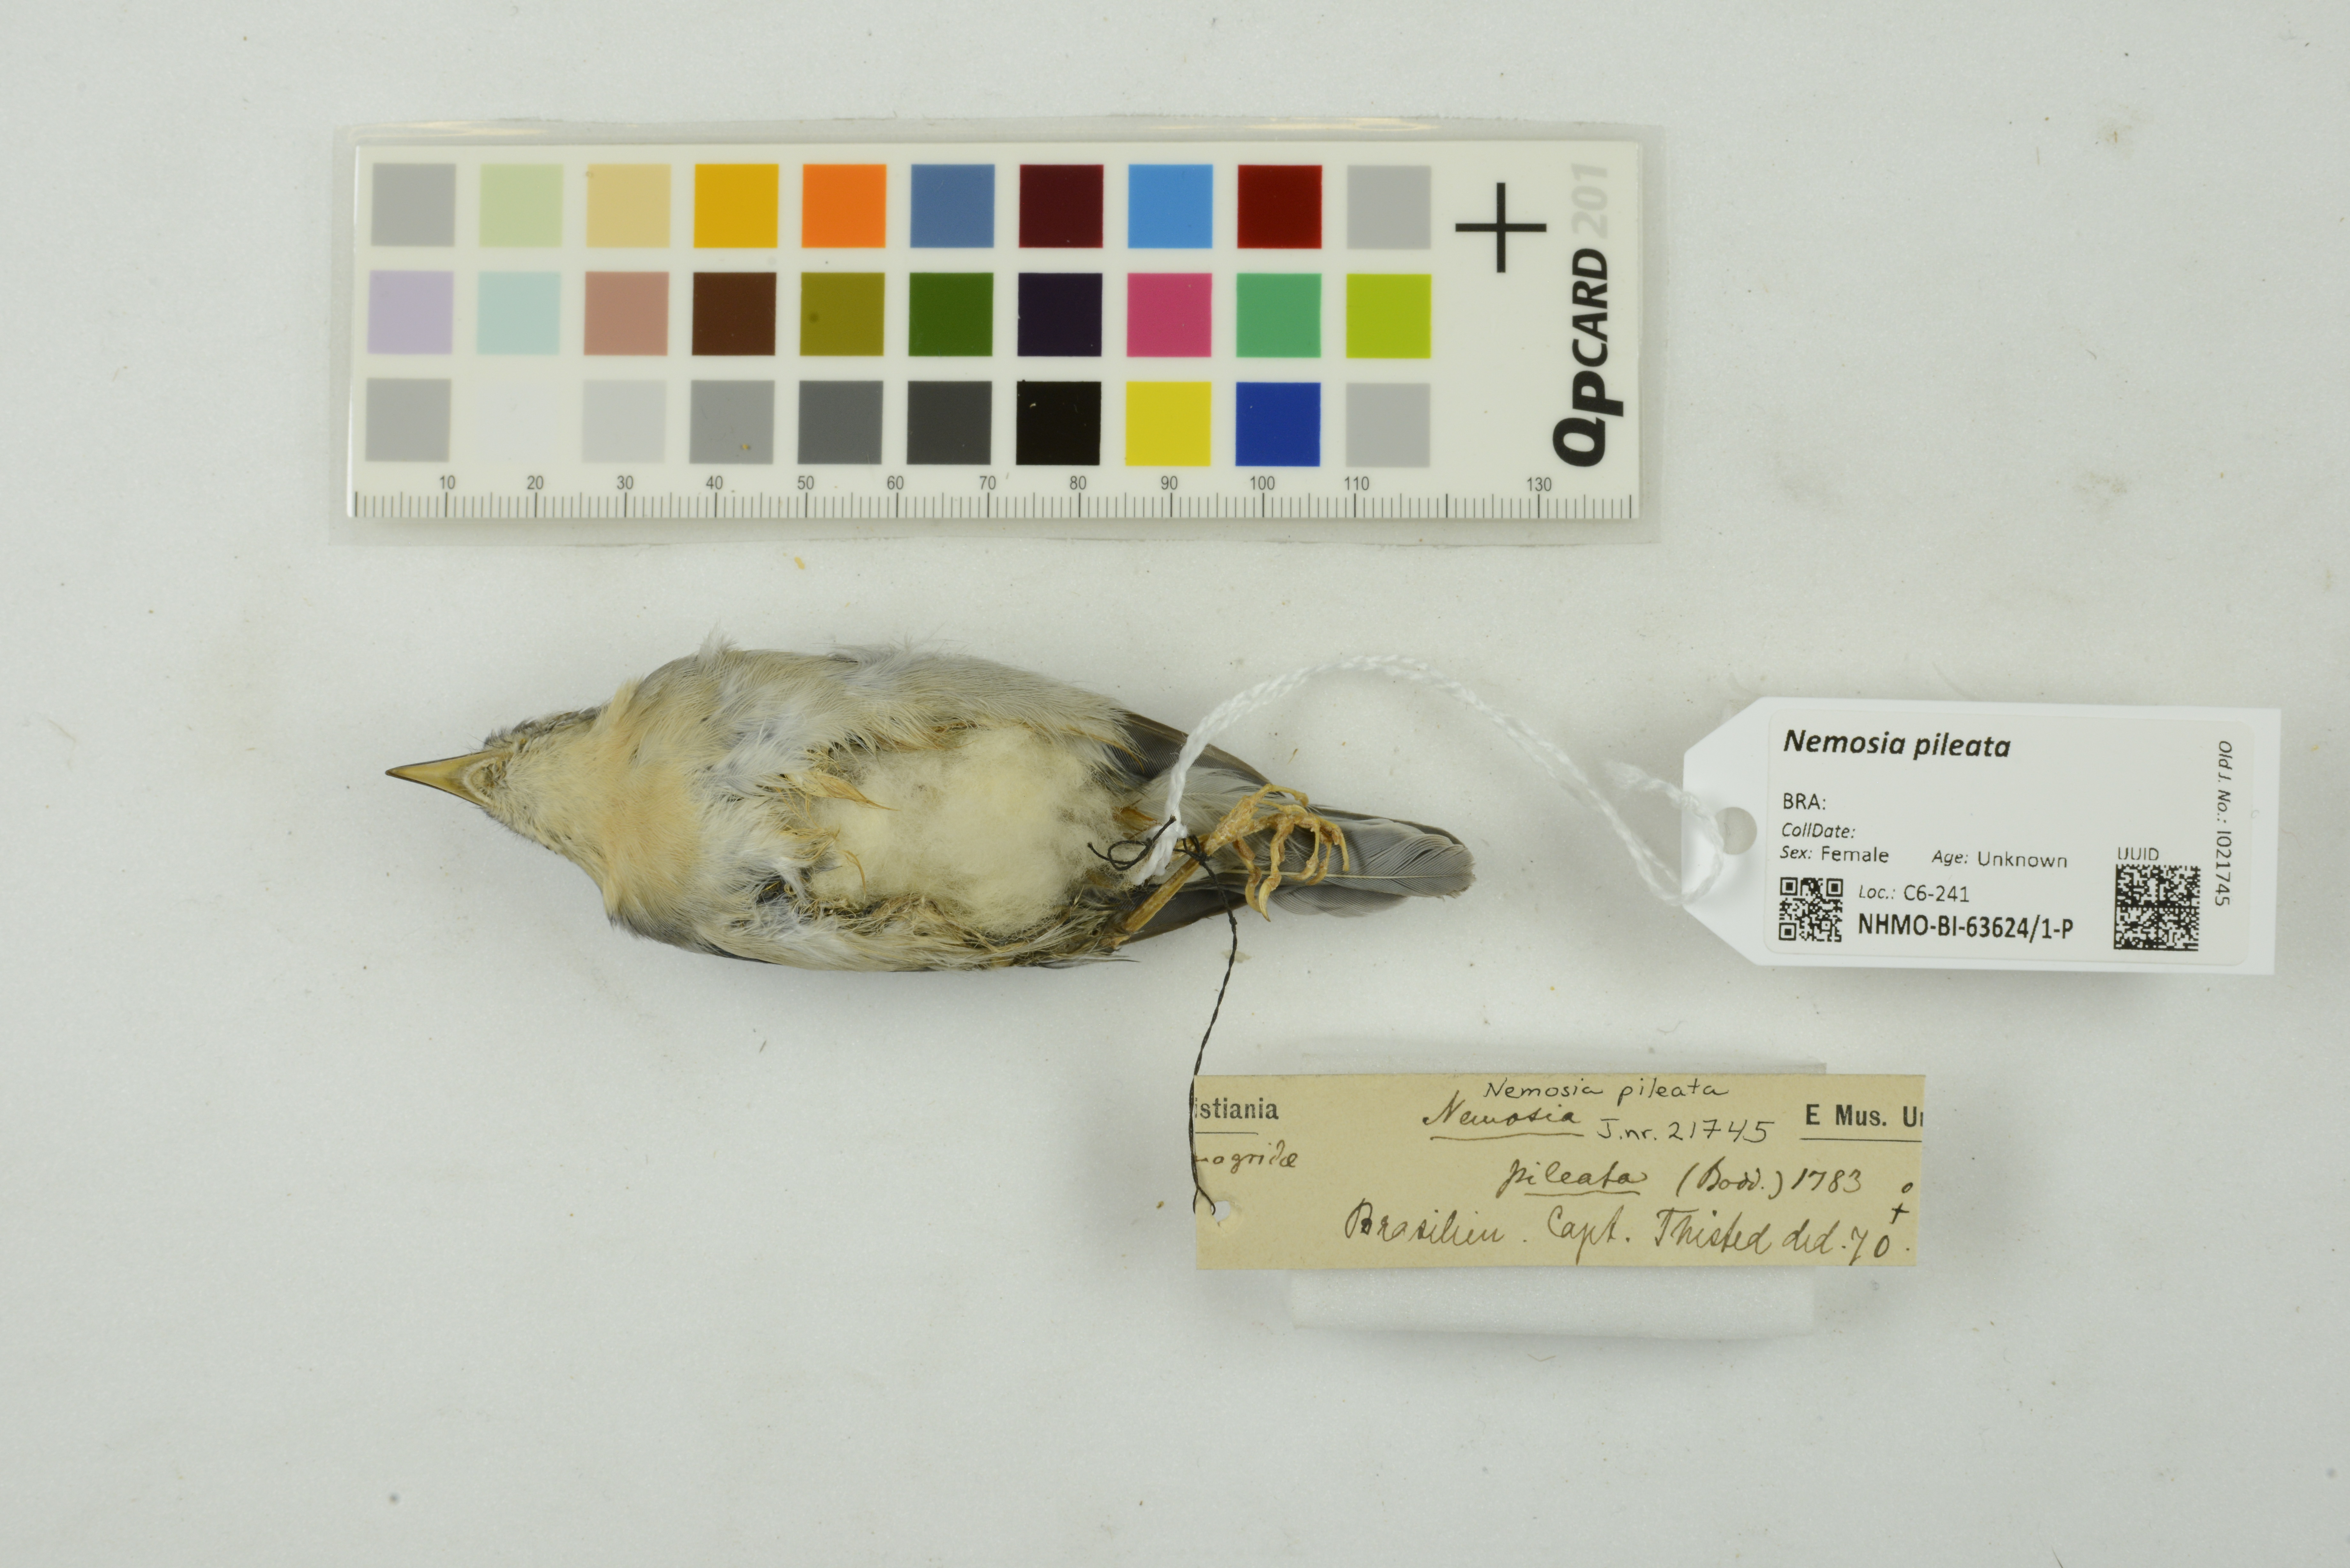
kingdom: Animalia
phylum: Chordata
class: Aves
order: Passeriformes
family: Thraupidae
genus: Nemosia
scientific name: Nemosia pileata
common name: Hooded tanager
